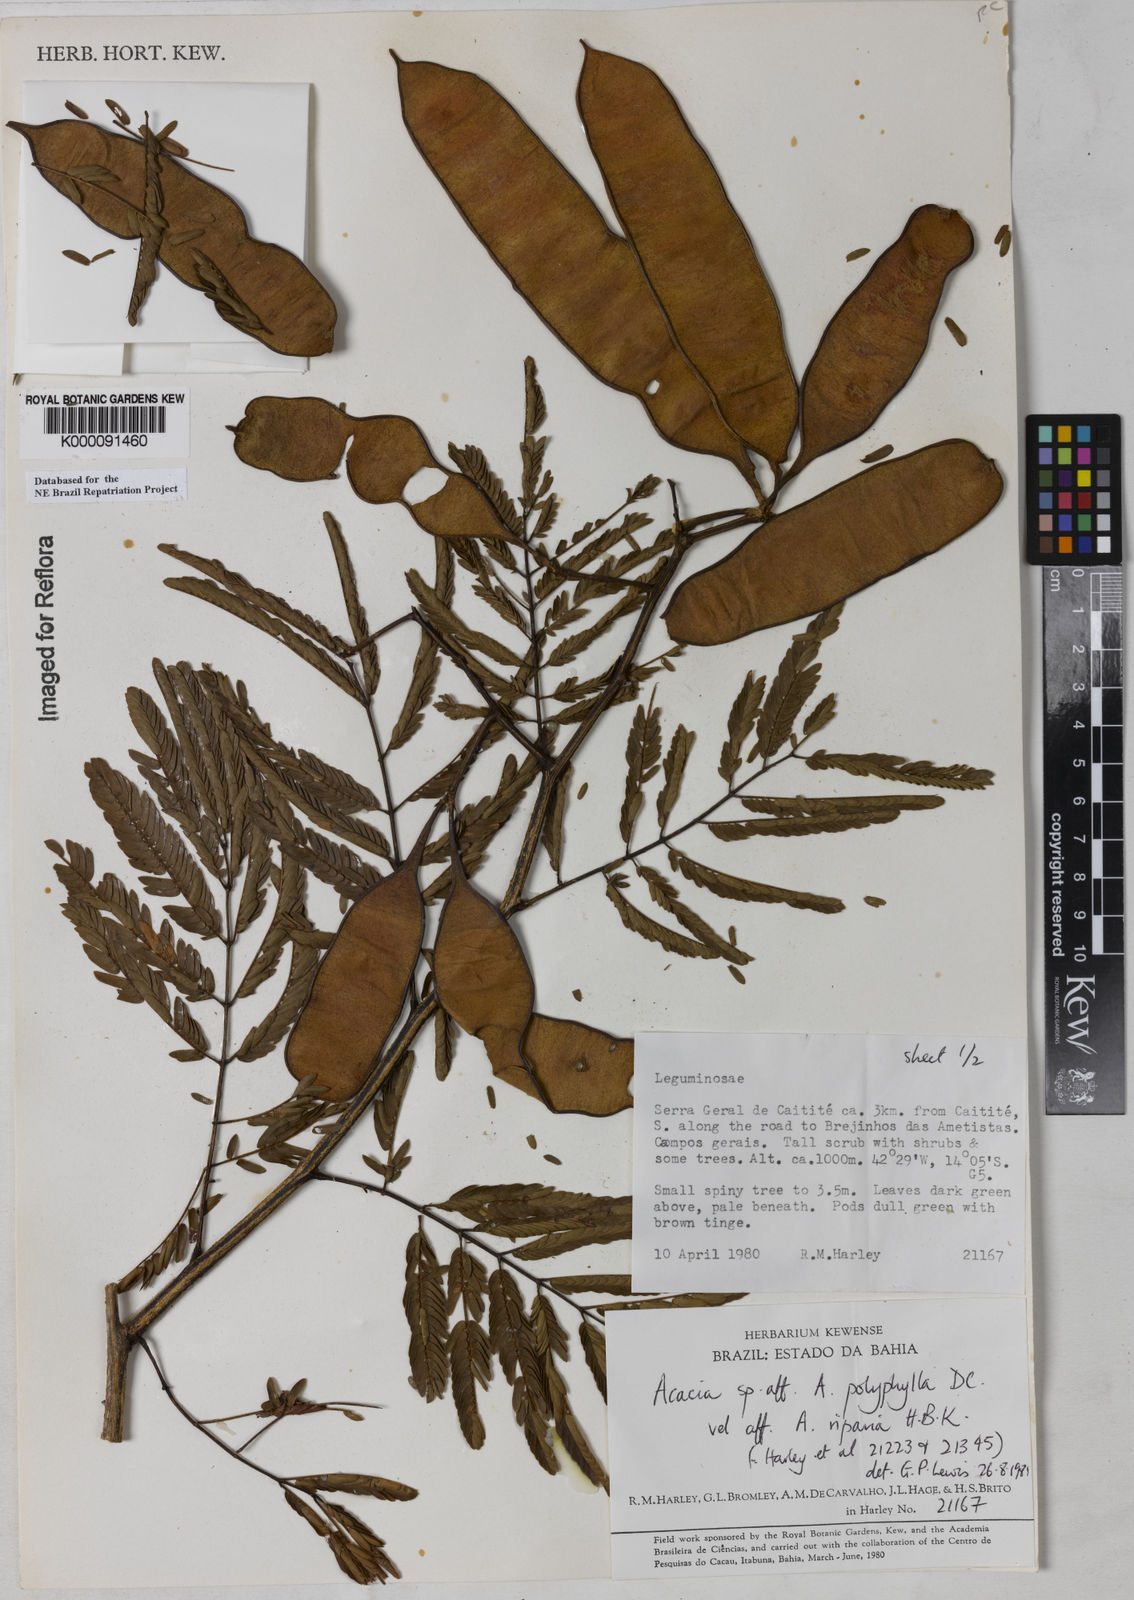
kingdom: Plantae
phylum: Tracheophyta
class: Magnoliopsida
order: Fabales
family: Fabaceae
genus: Senegalia
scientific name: Senegalia polyphylla
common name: White-tamarind
